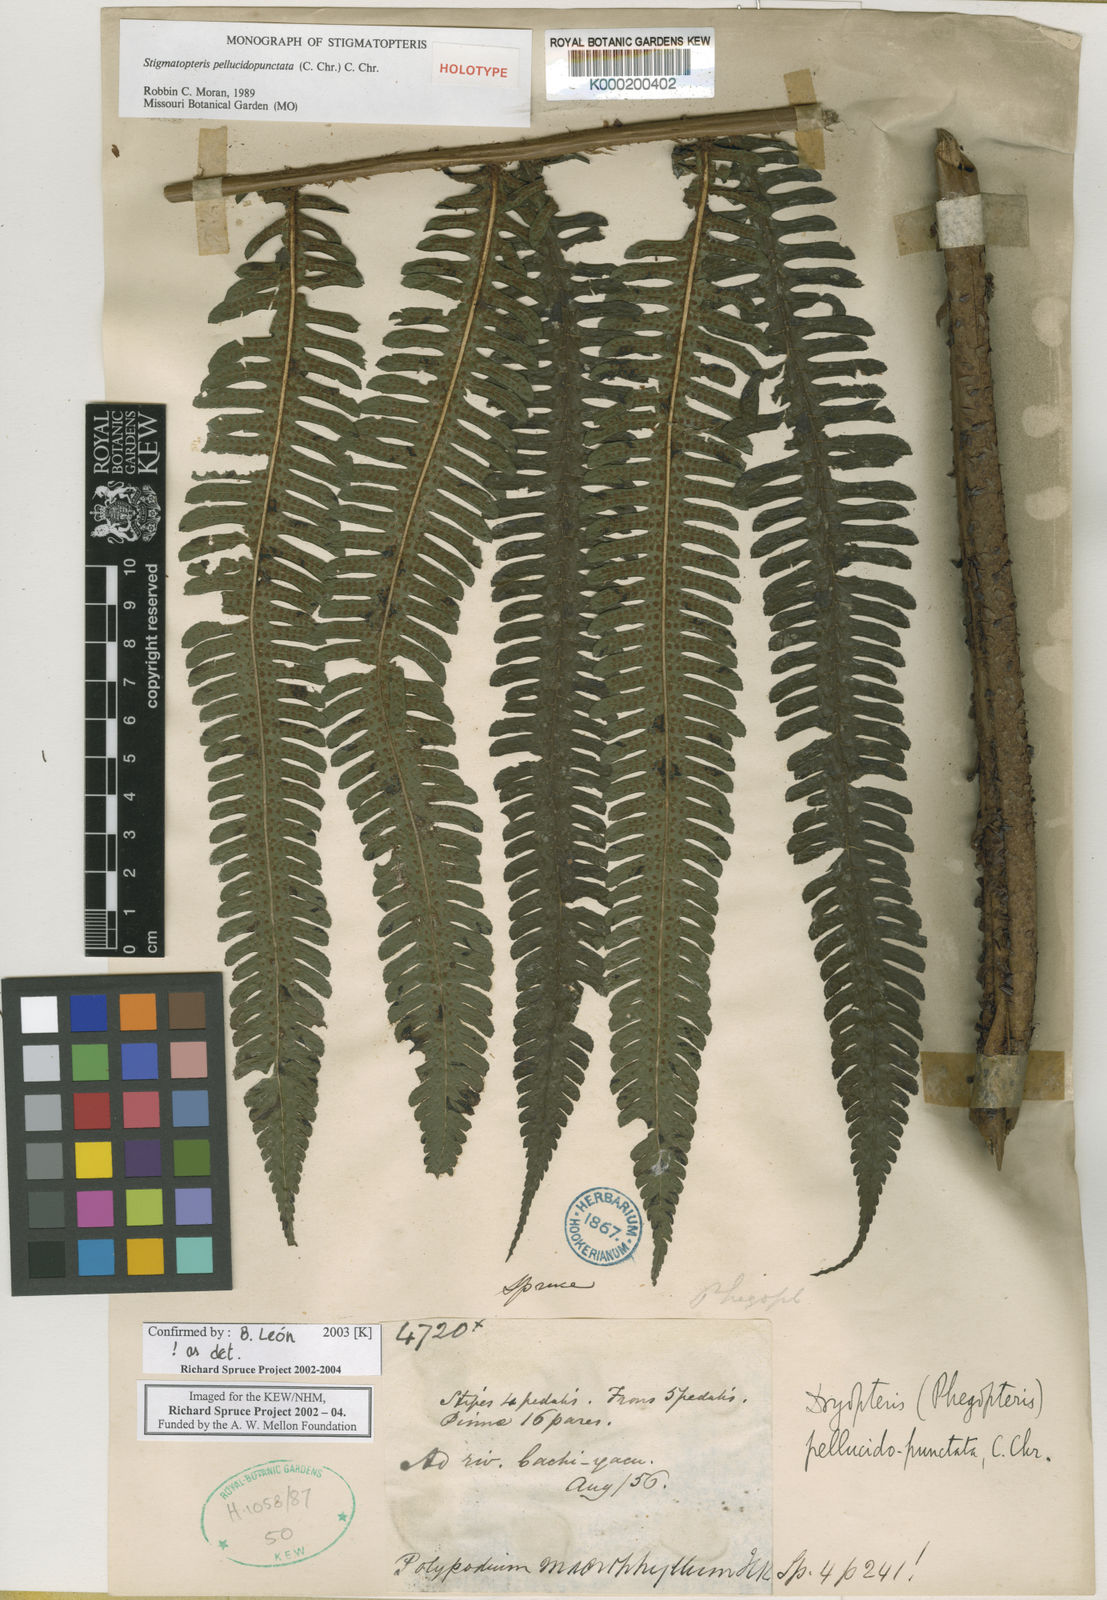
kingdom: Plantae
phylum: Tracheophyta
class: Polypodiopsida
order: Polypodiales
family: Dryopteridaceae
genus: Stigmatopteris
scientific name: Stigmatopteris pellucidopunctata
